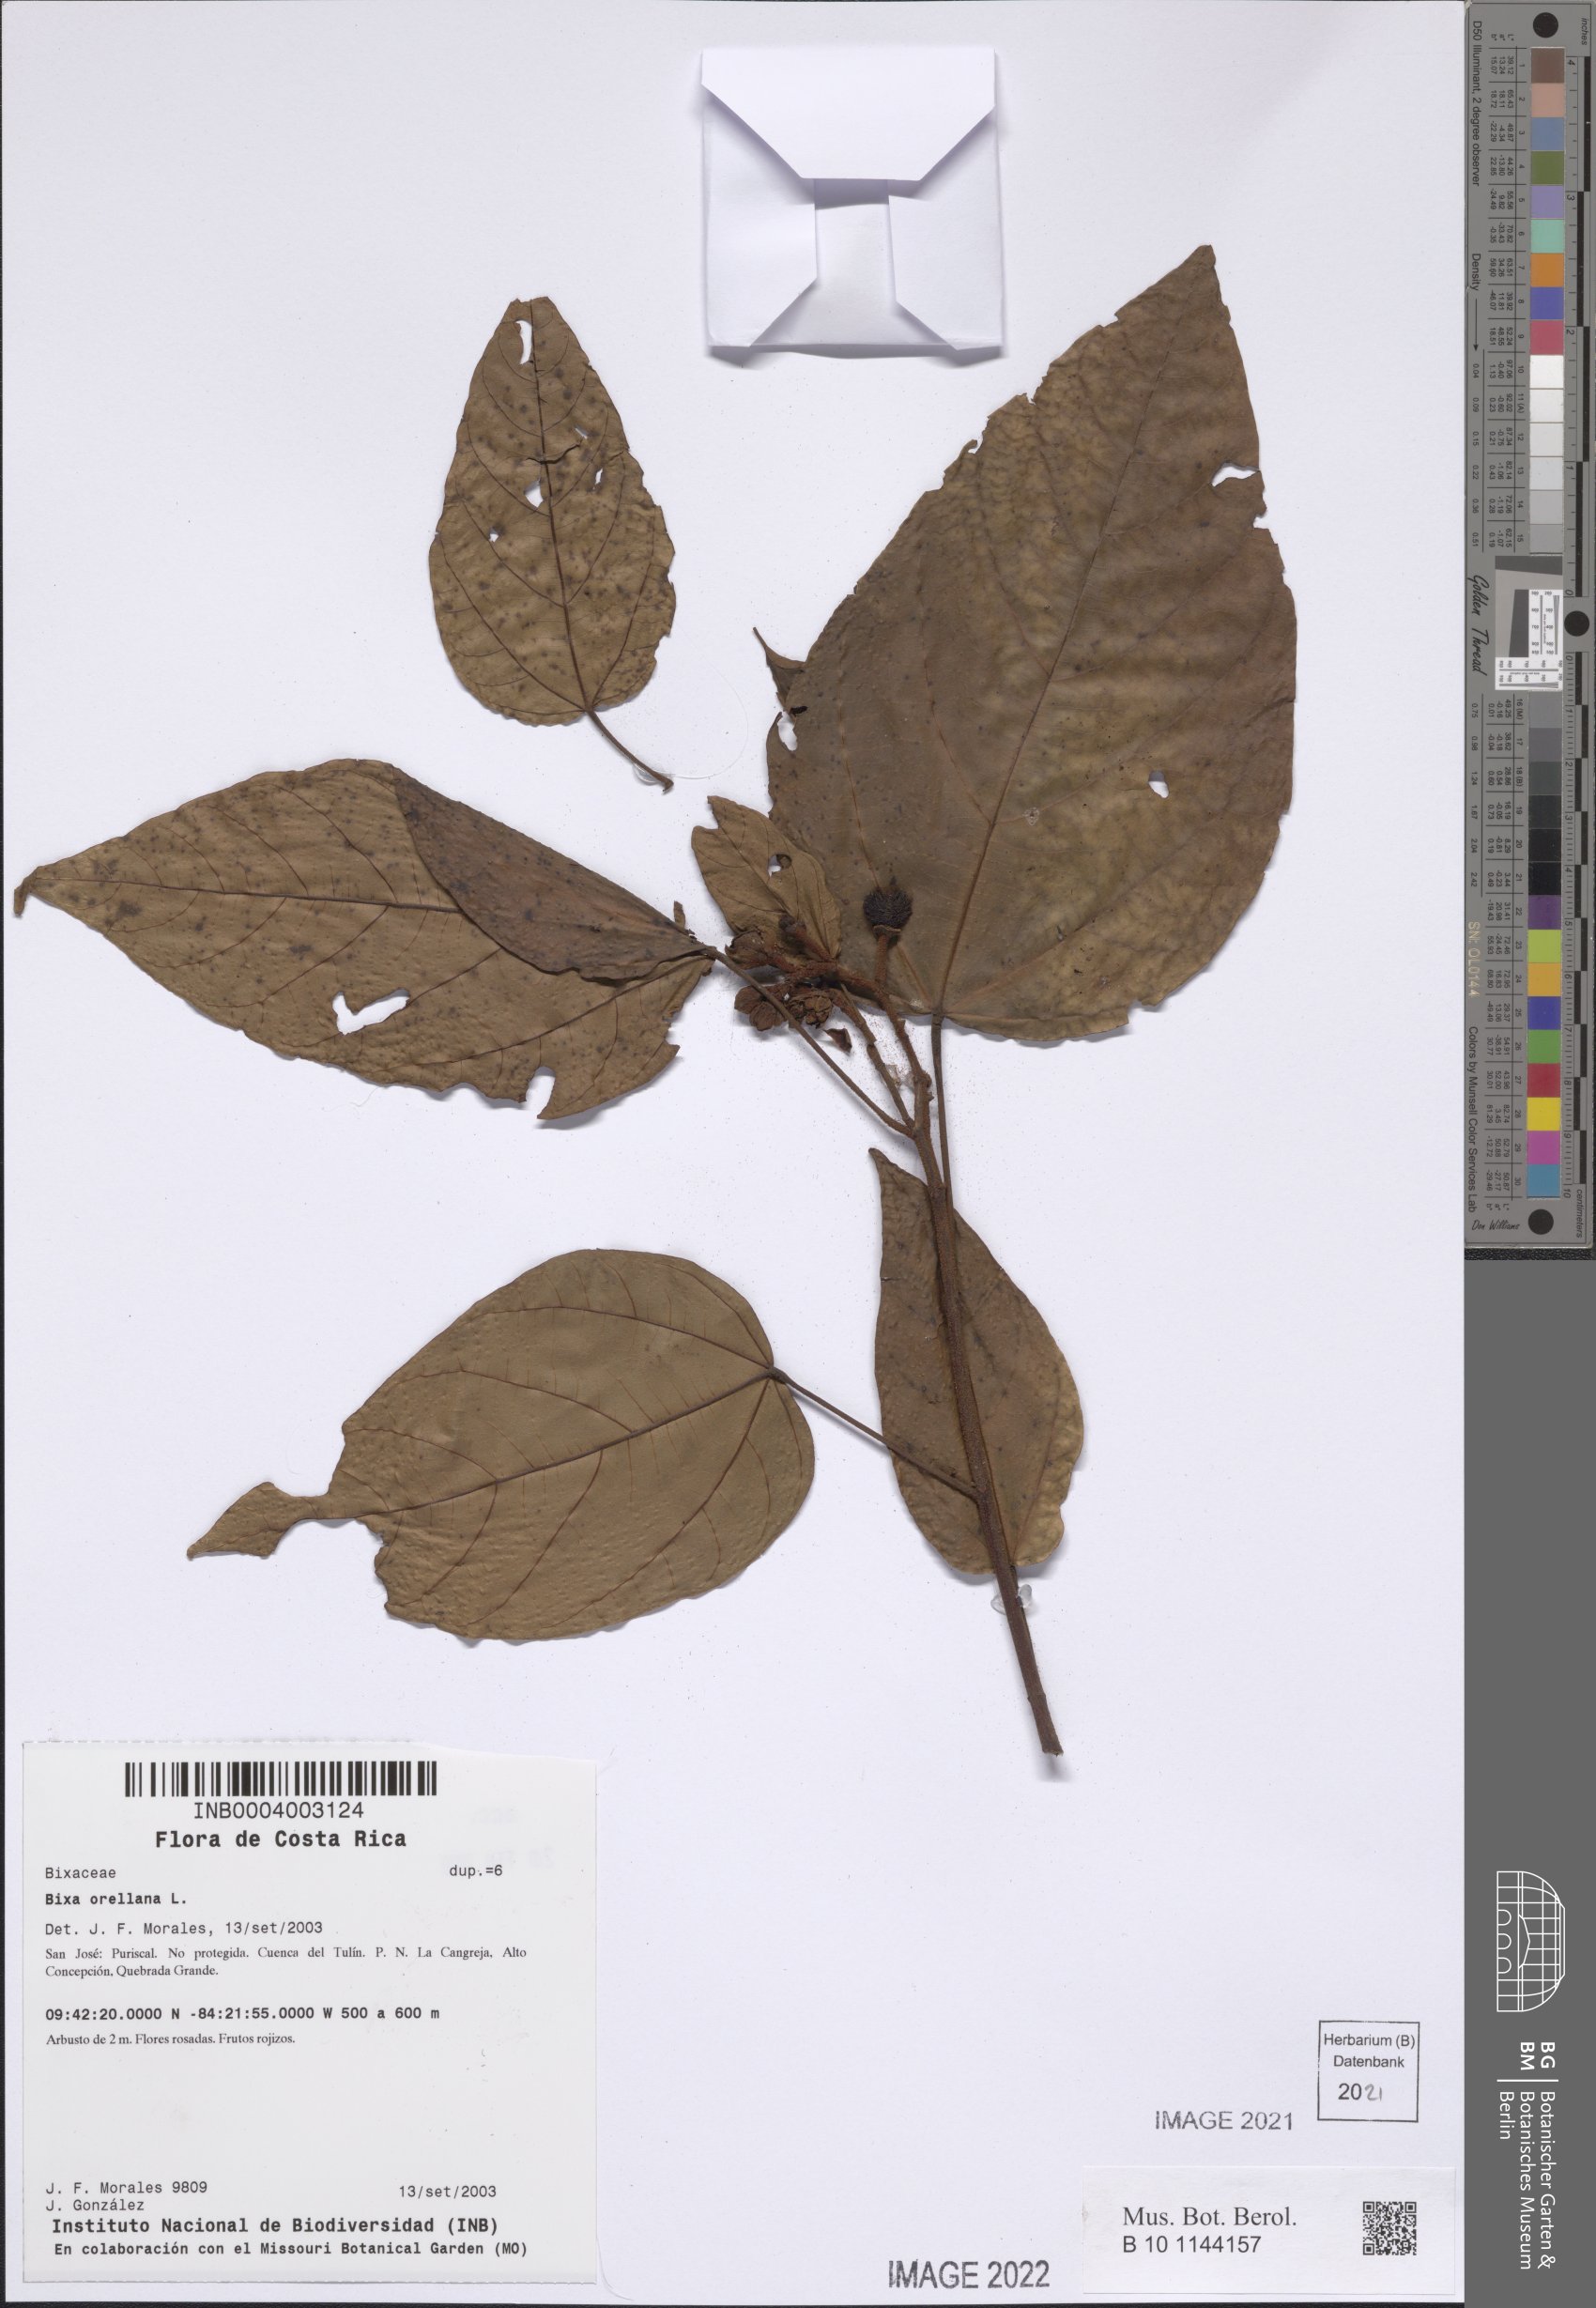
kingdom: Plantae
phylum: Tracheophyta
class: Magnoliopsida
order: Malvales
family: Bixaceae
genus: Bixa
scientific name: Bixa orellana
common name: Lipsticktree
